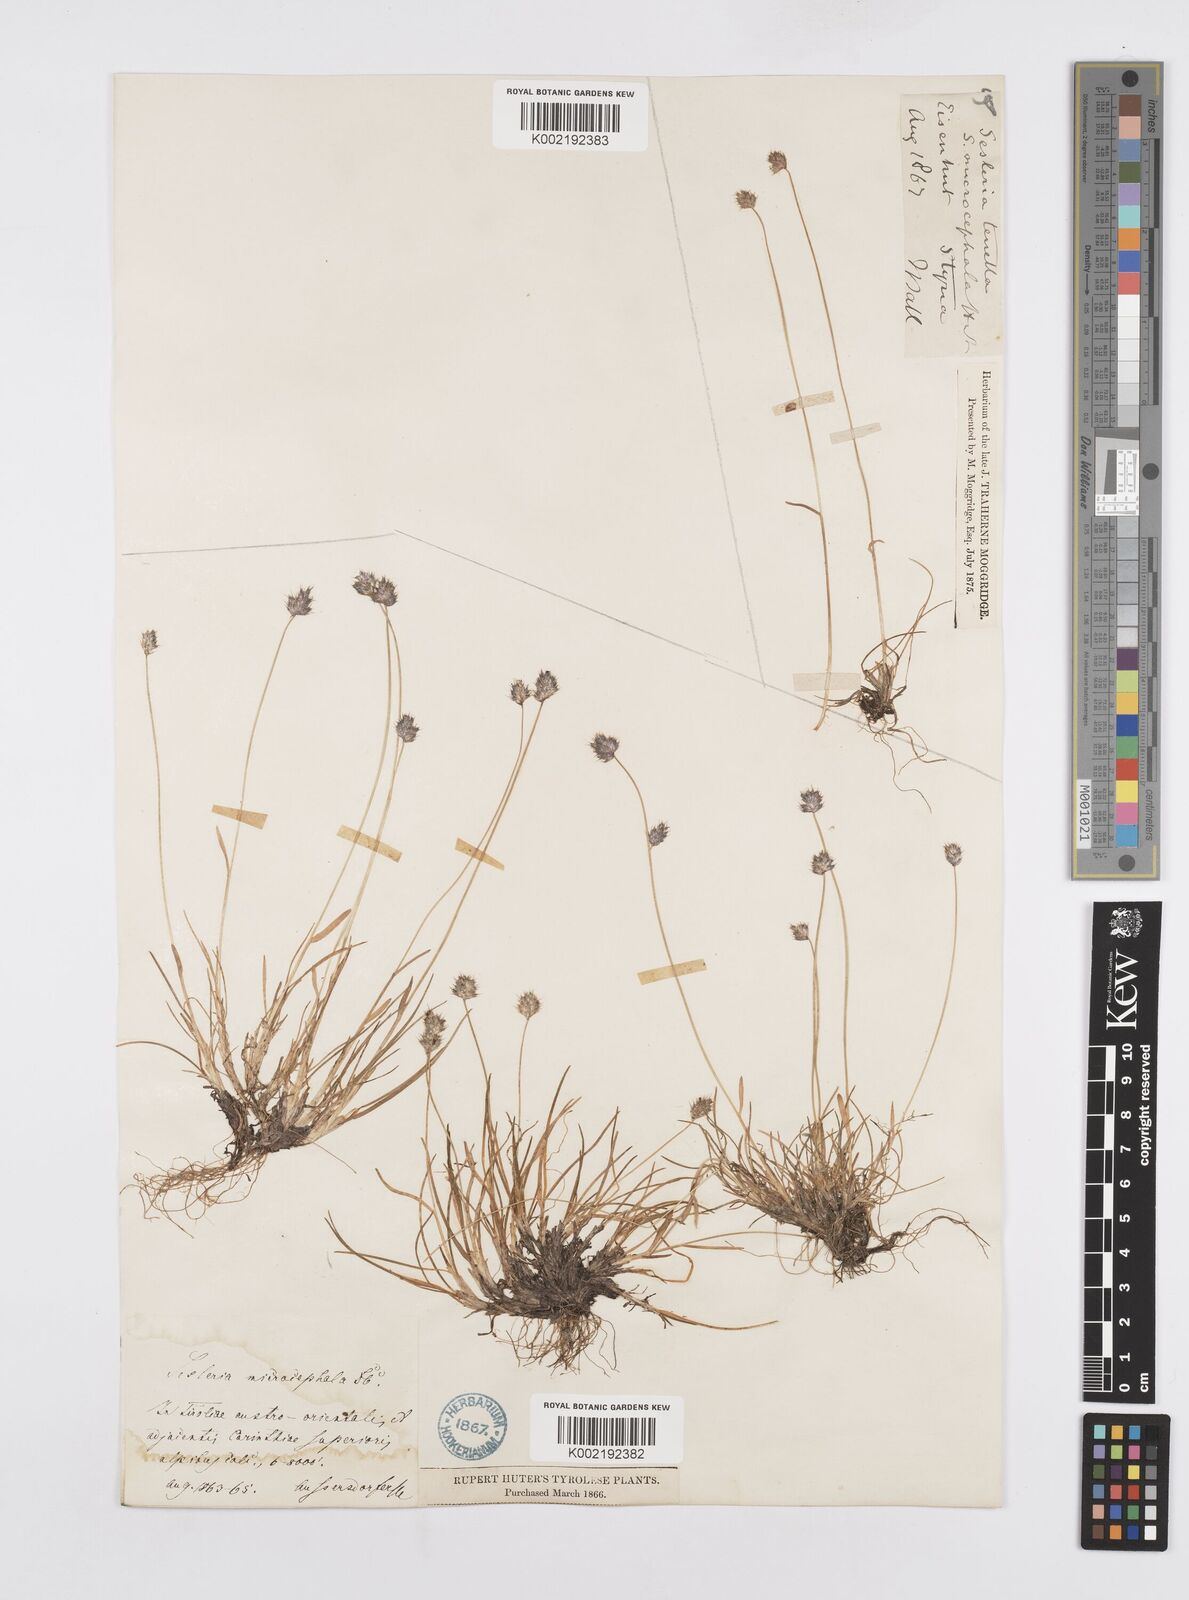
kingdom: Plantae
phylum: Tracheophyta
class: Liliopsida
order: Poales
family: Poaceae
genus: Psilathera
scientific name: Psilathera ovata
